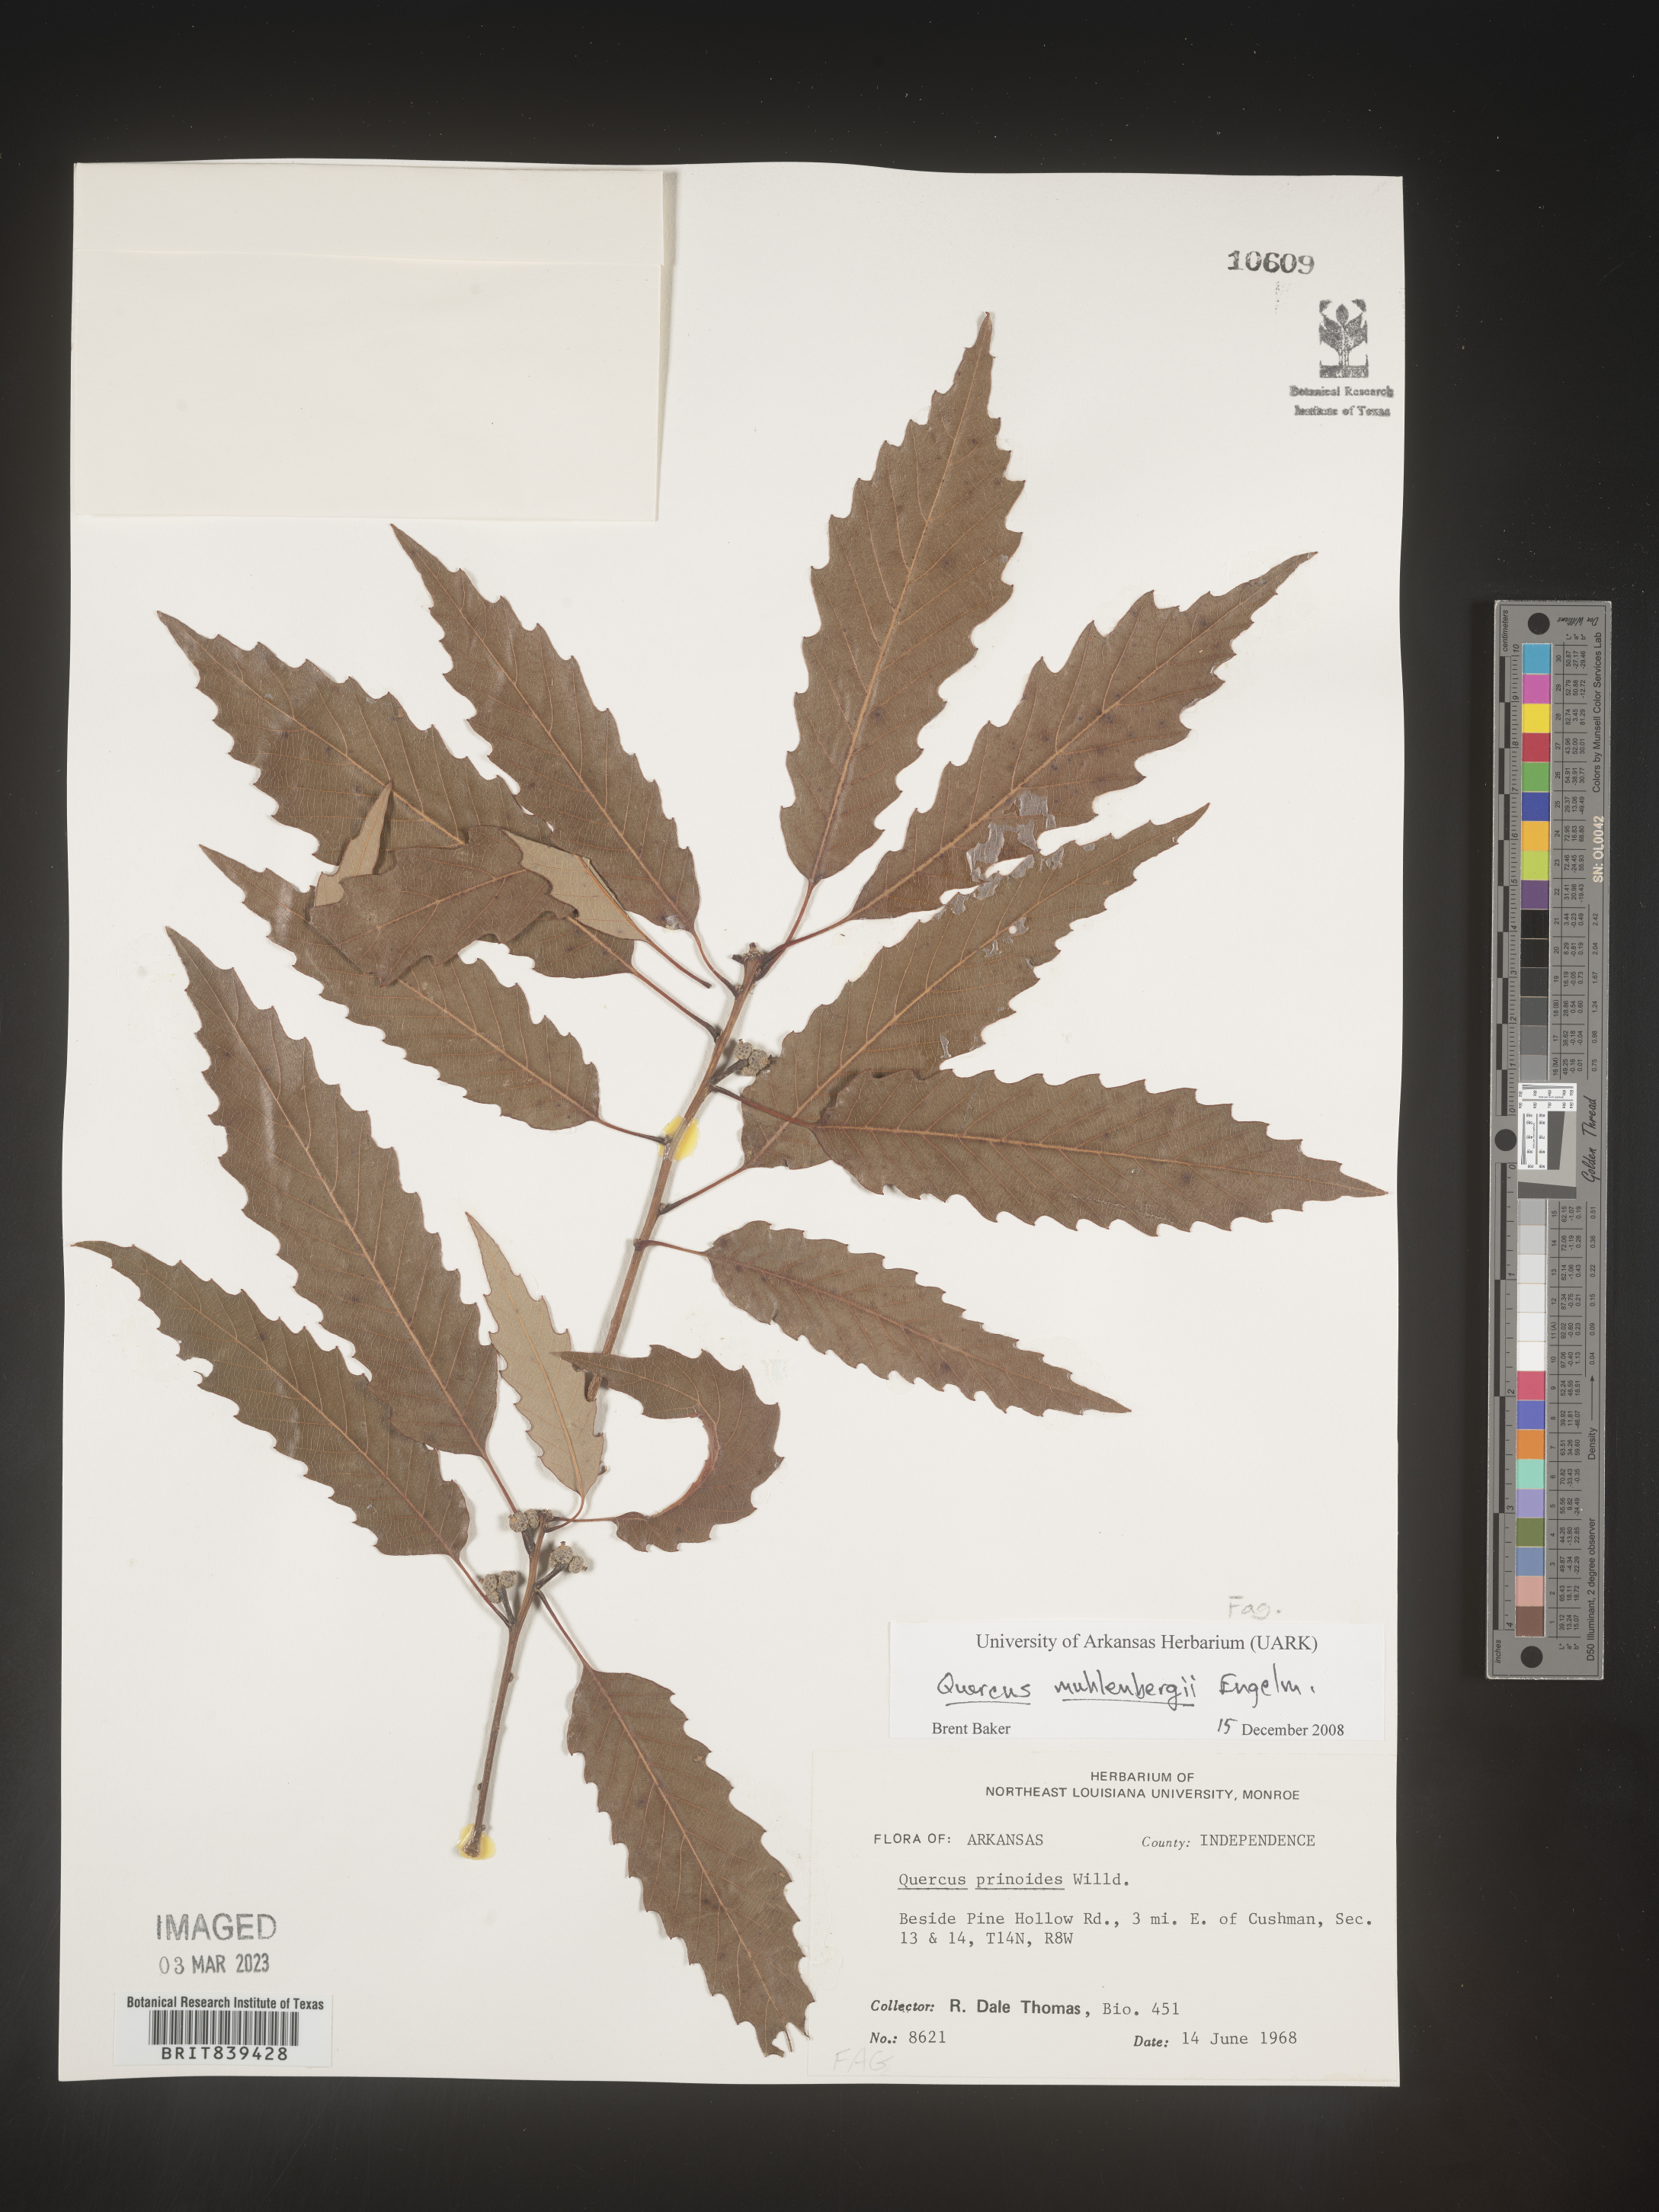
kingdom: Plantae
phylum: Tracheophyta
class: Magnoliopsida
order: Fagales
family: Fagaceae
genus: Quercus
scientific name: Quercus muehlenbergii
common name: Chinkapin oak
